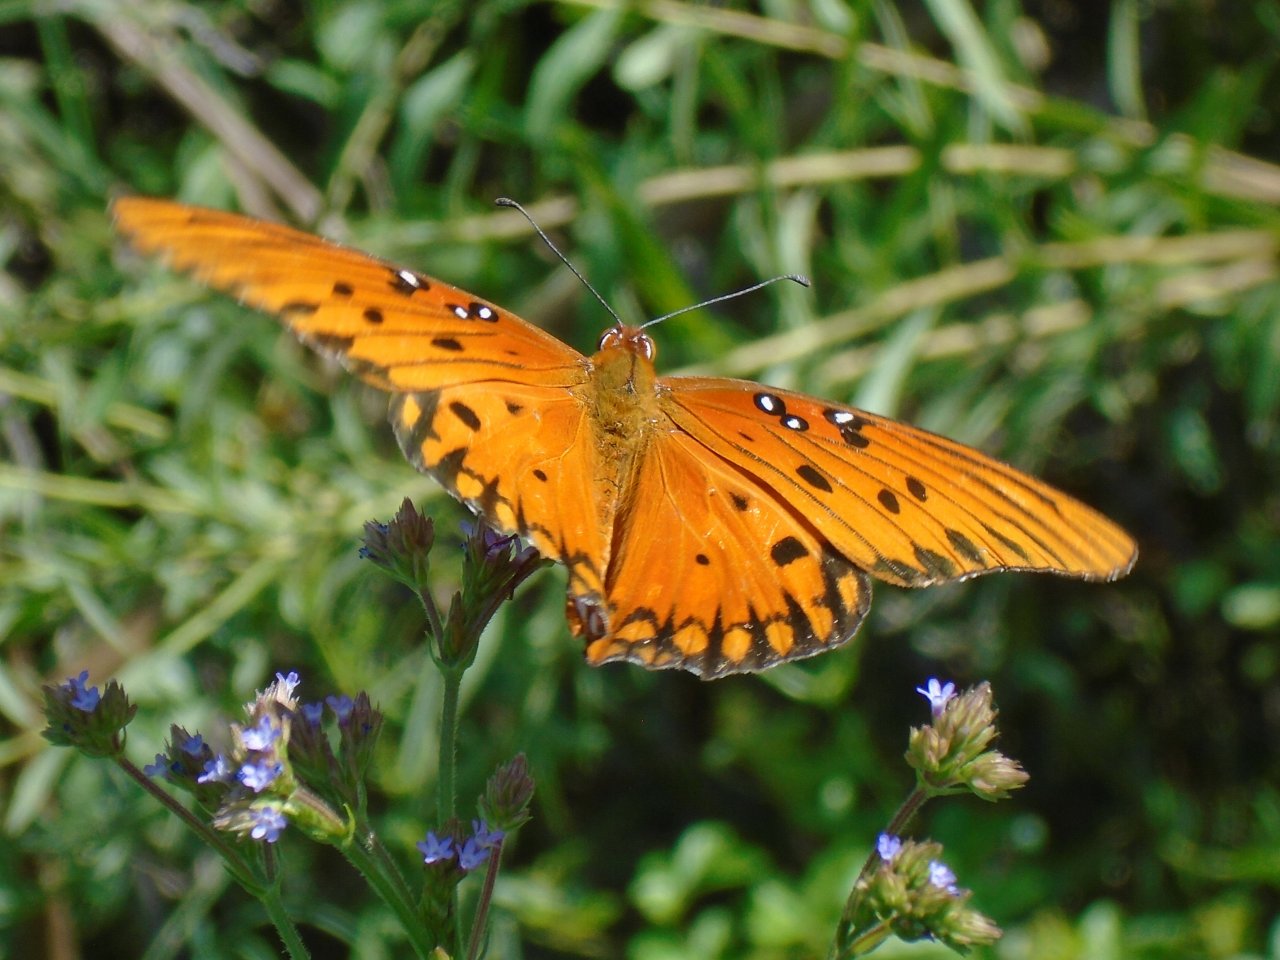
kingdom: Animalia
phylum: Arthropoda
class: Insecta
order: Lepidoptera
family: Nymphalidae
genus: Dione
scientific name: Dione vanillae
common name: Gulf Fritillary
